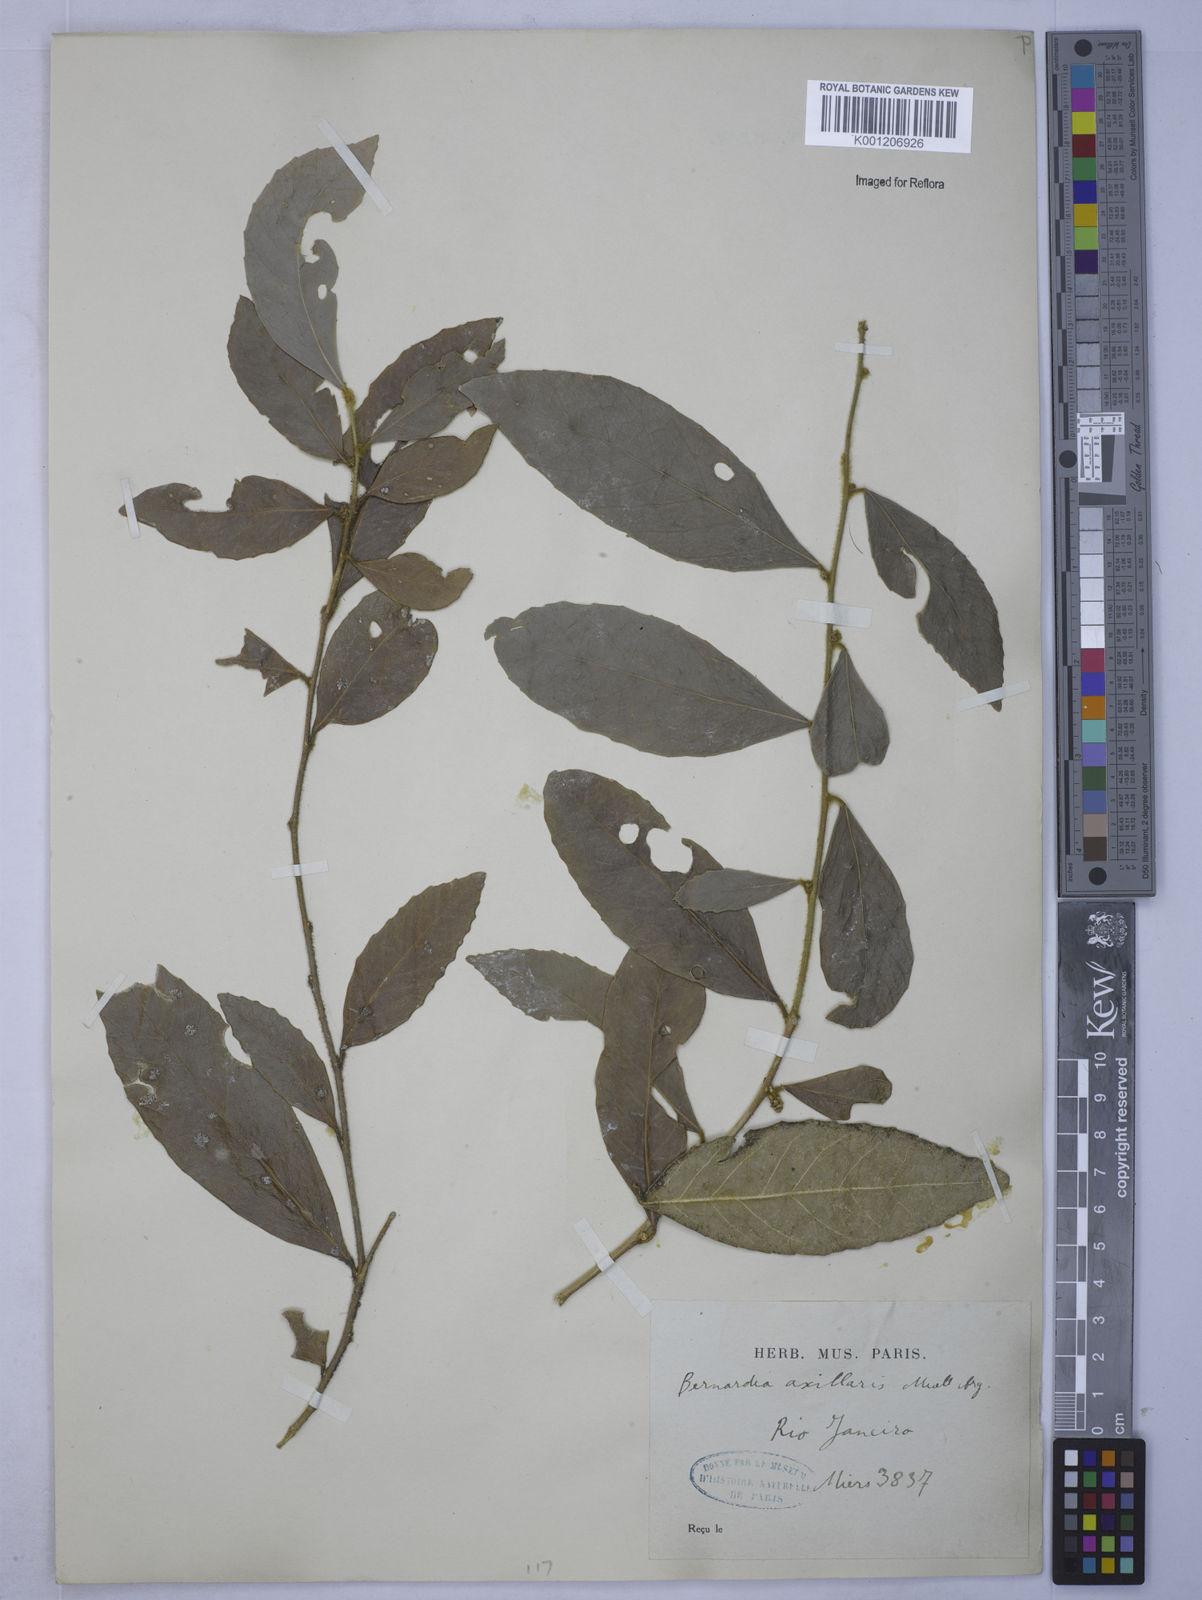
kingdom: Plantae
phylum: Tracheophyta
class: Magnoliopsida
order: Malpighiales
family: Euphorbiaceae
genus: Bernardia
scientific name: Bernardia
